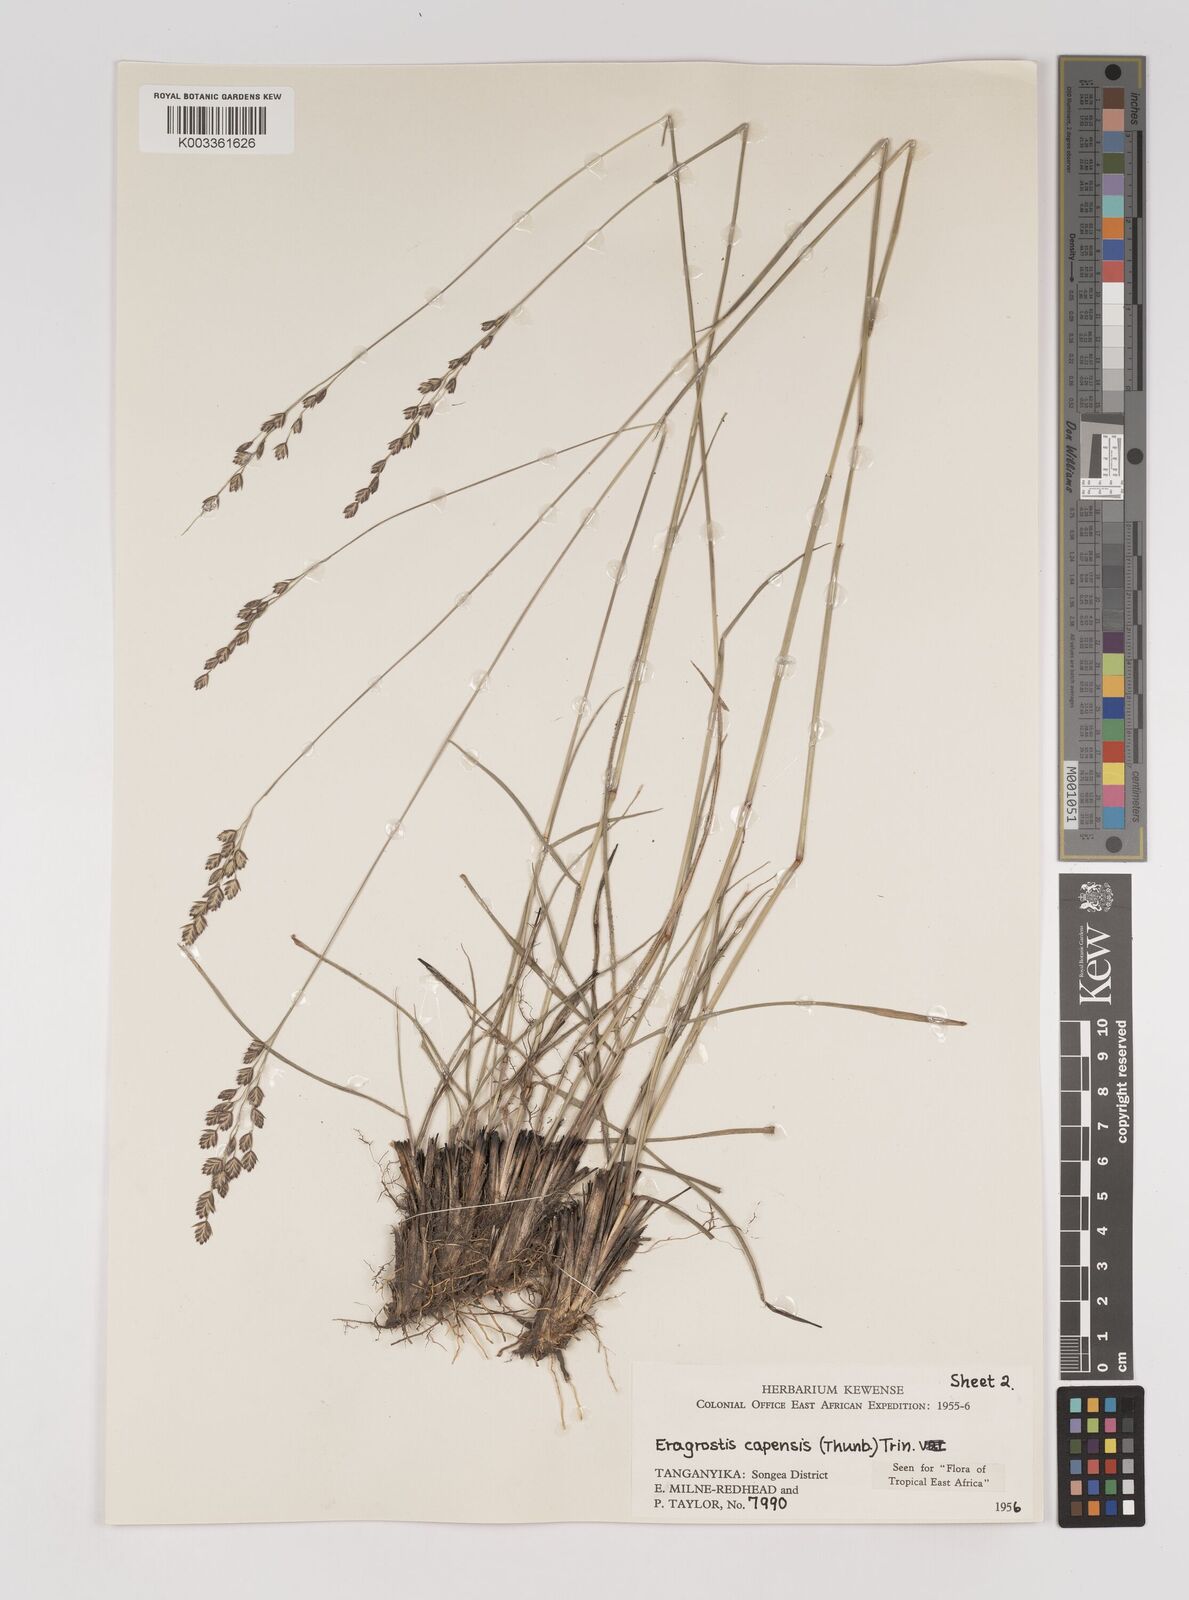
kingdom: Plantae
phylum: Tracheophyta
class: Liliopsida
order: Poales
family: Poaceae
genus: Eragrostis
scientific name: Eragrostis capensis
